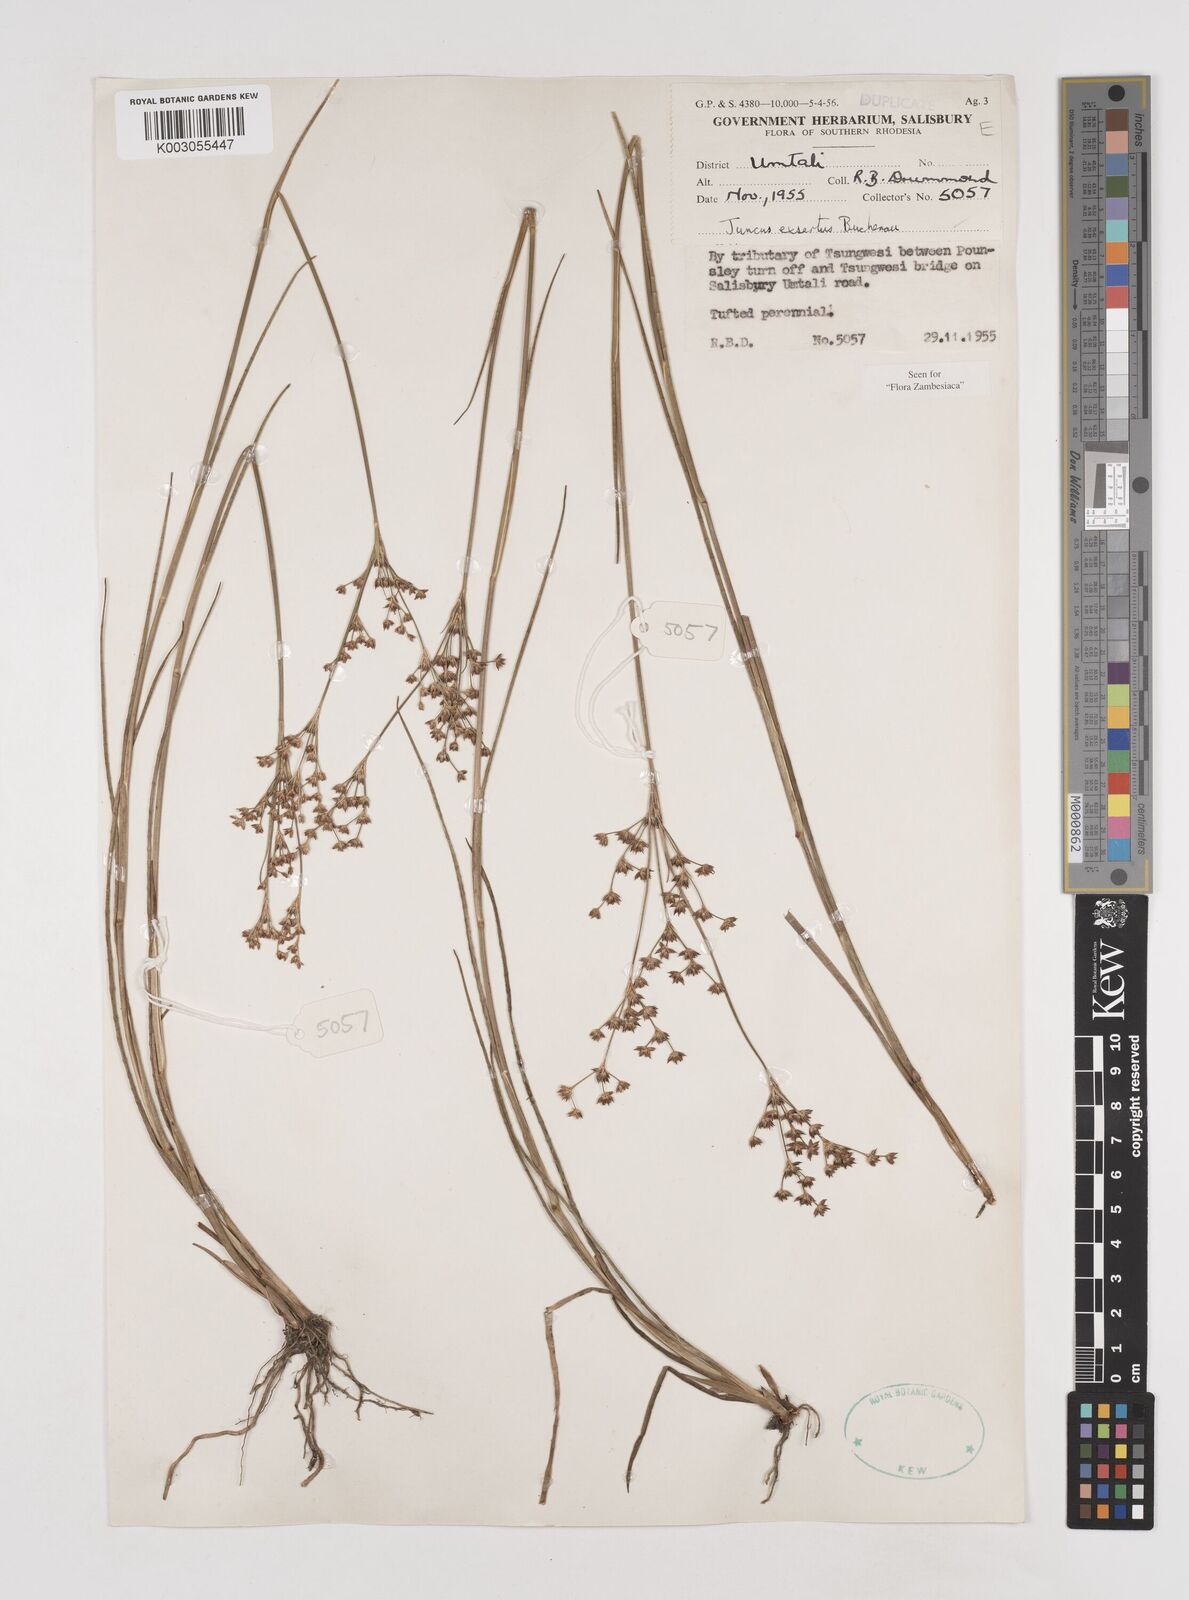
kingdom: Plantae
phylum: Tracheophyta
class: Liliopsida
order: Poales
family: Juncaceae
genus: Juncus
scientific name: Juncus exsertus
